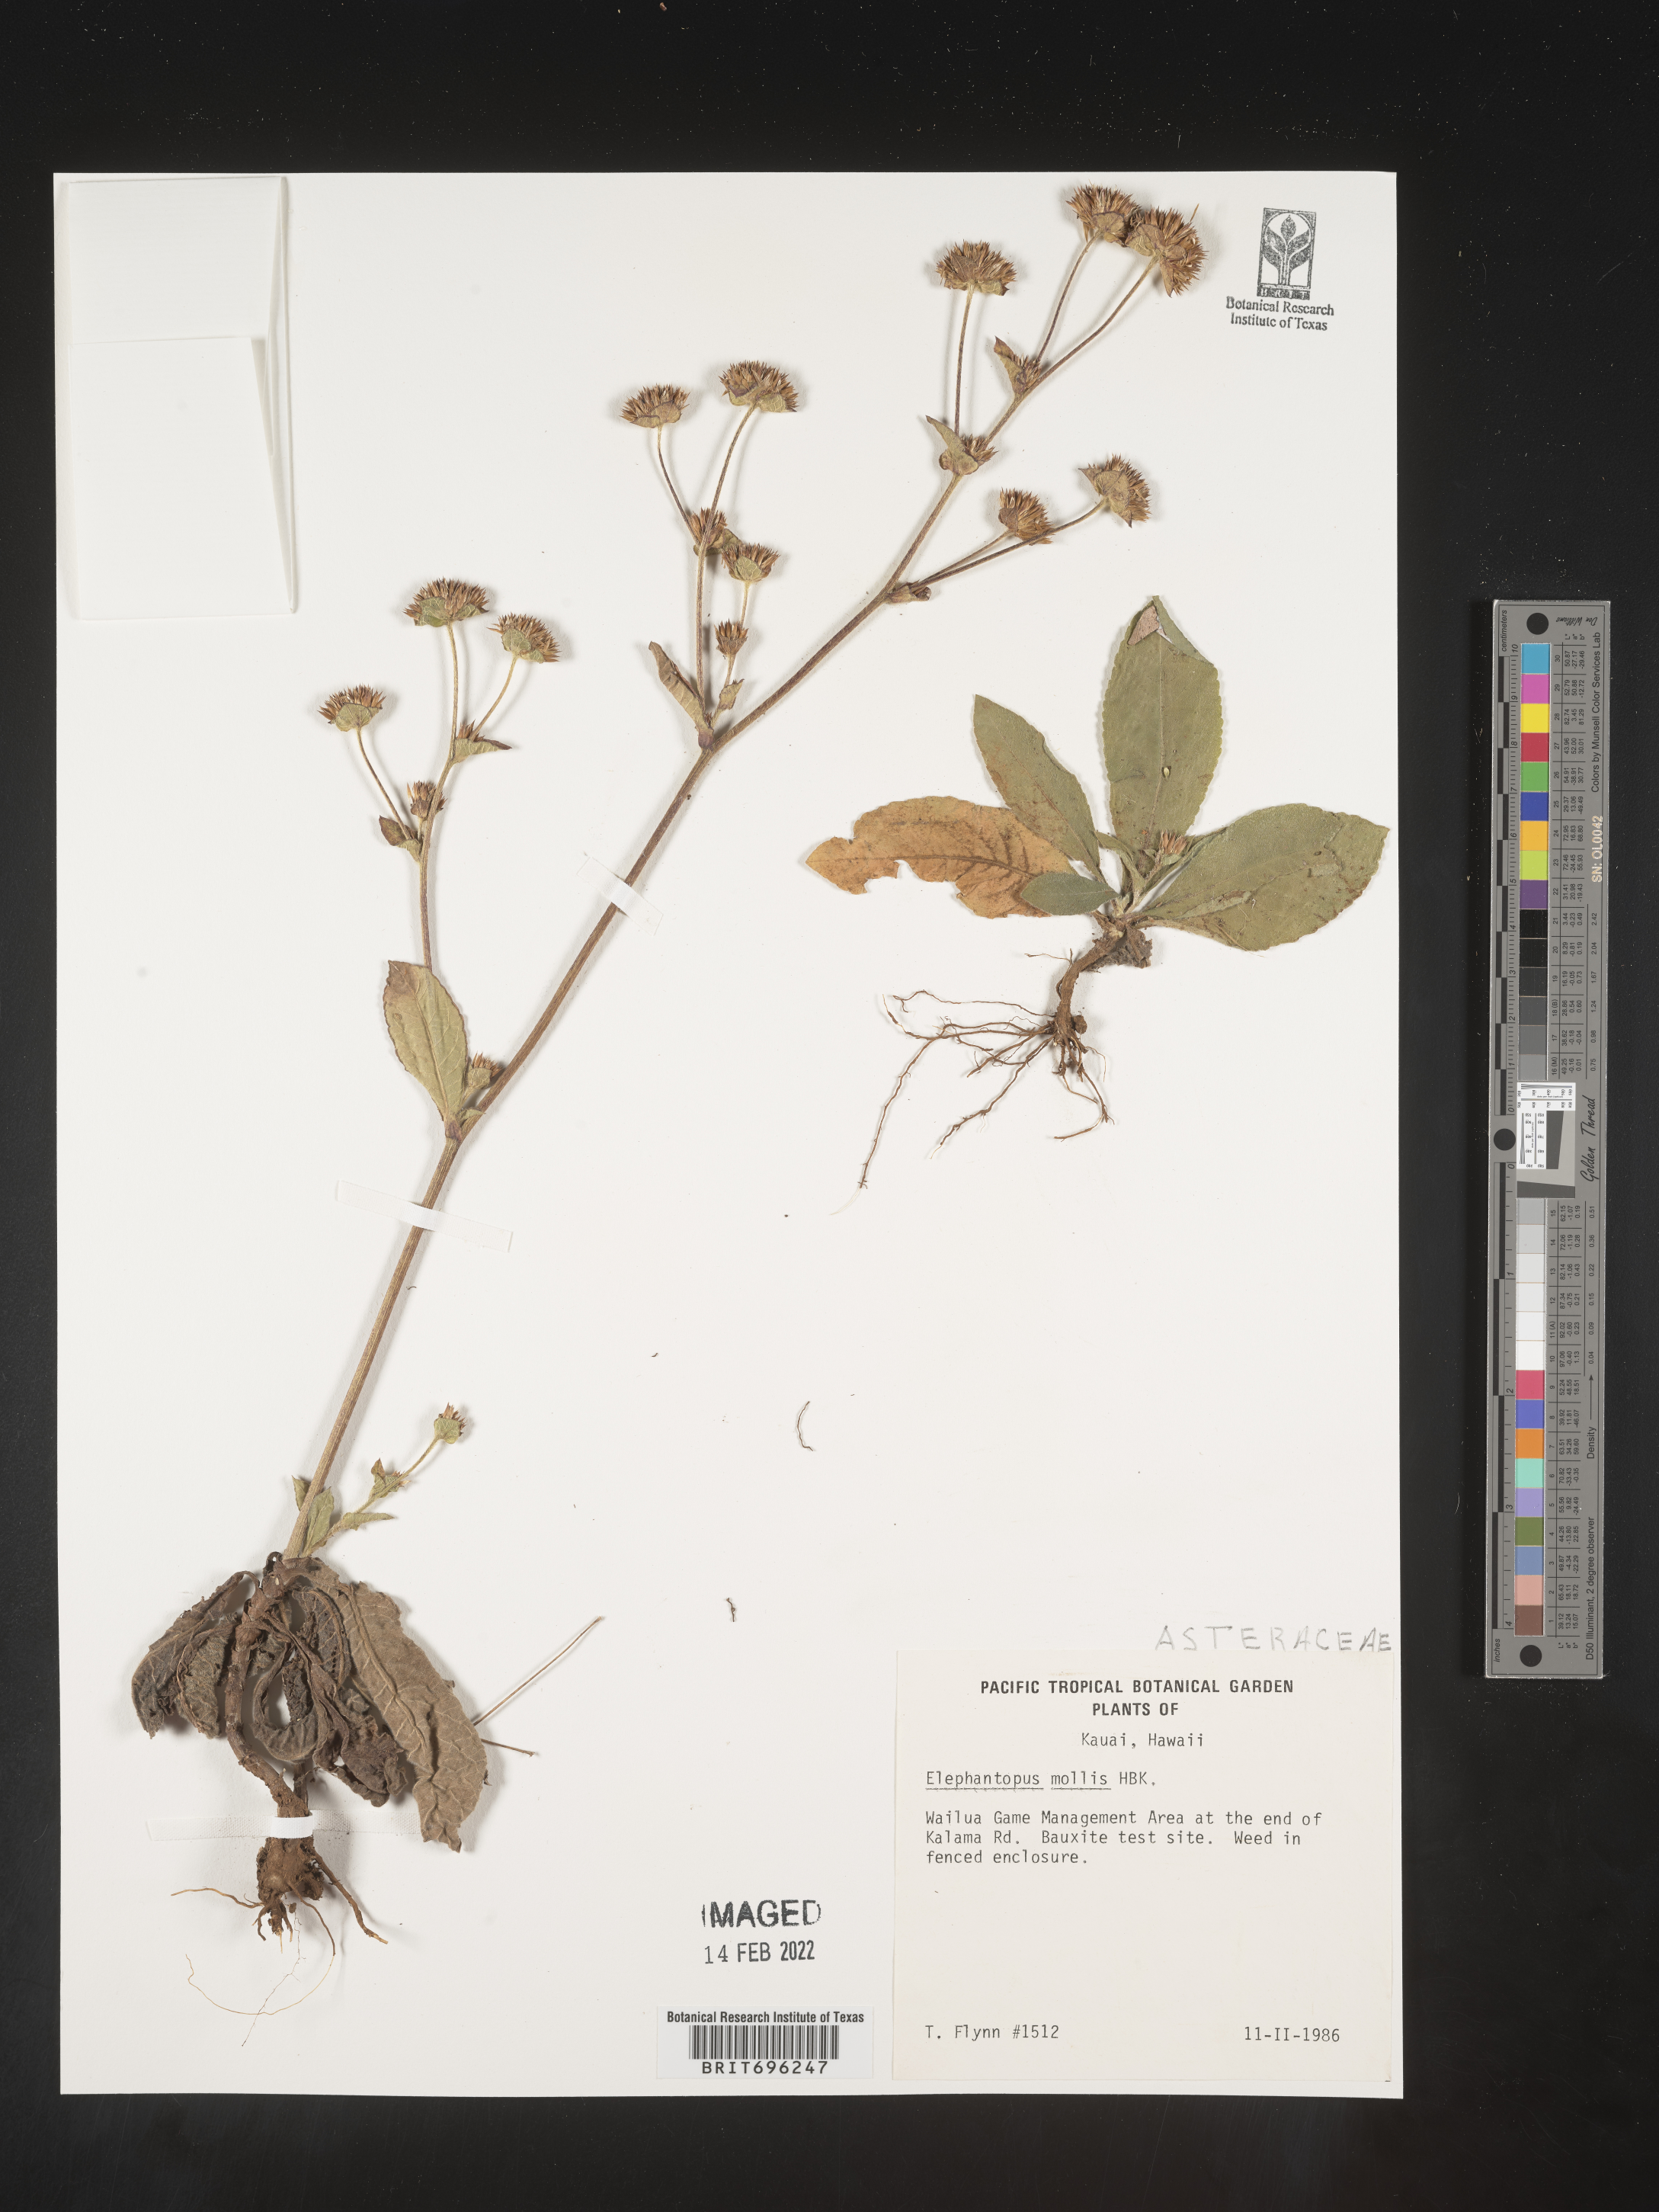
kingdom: Plantae
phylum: Tracheophyta
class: Magnoliopsida
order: Asterales
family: Asteraceae
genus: Elephantopus
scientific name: Elephantopus
